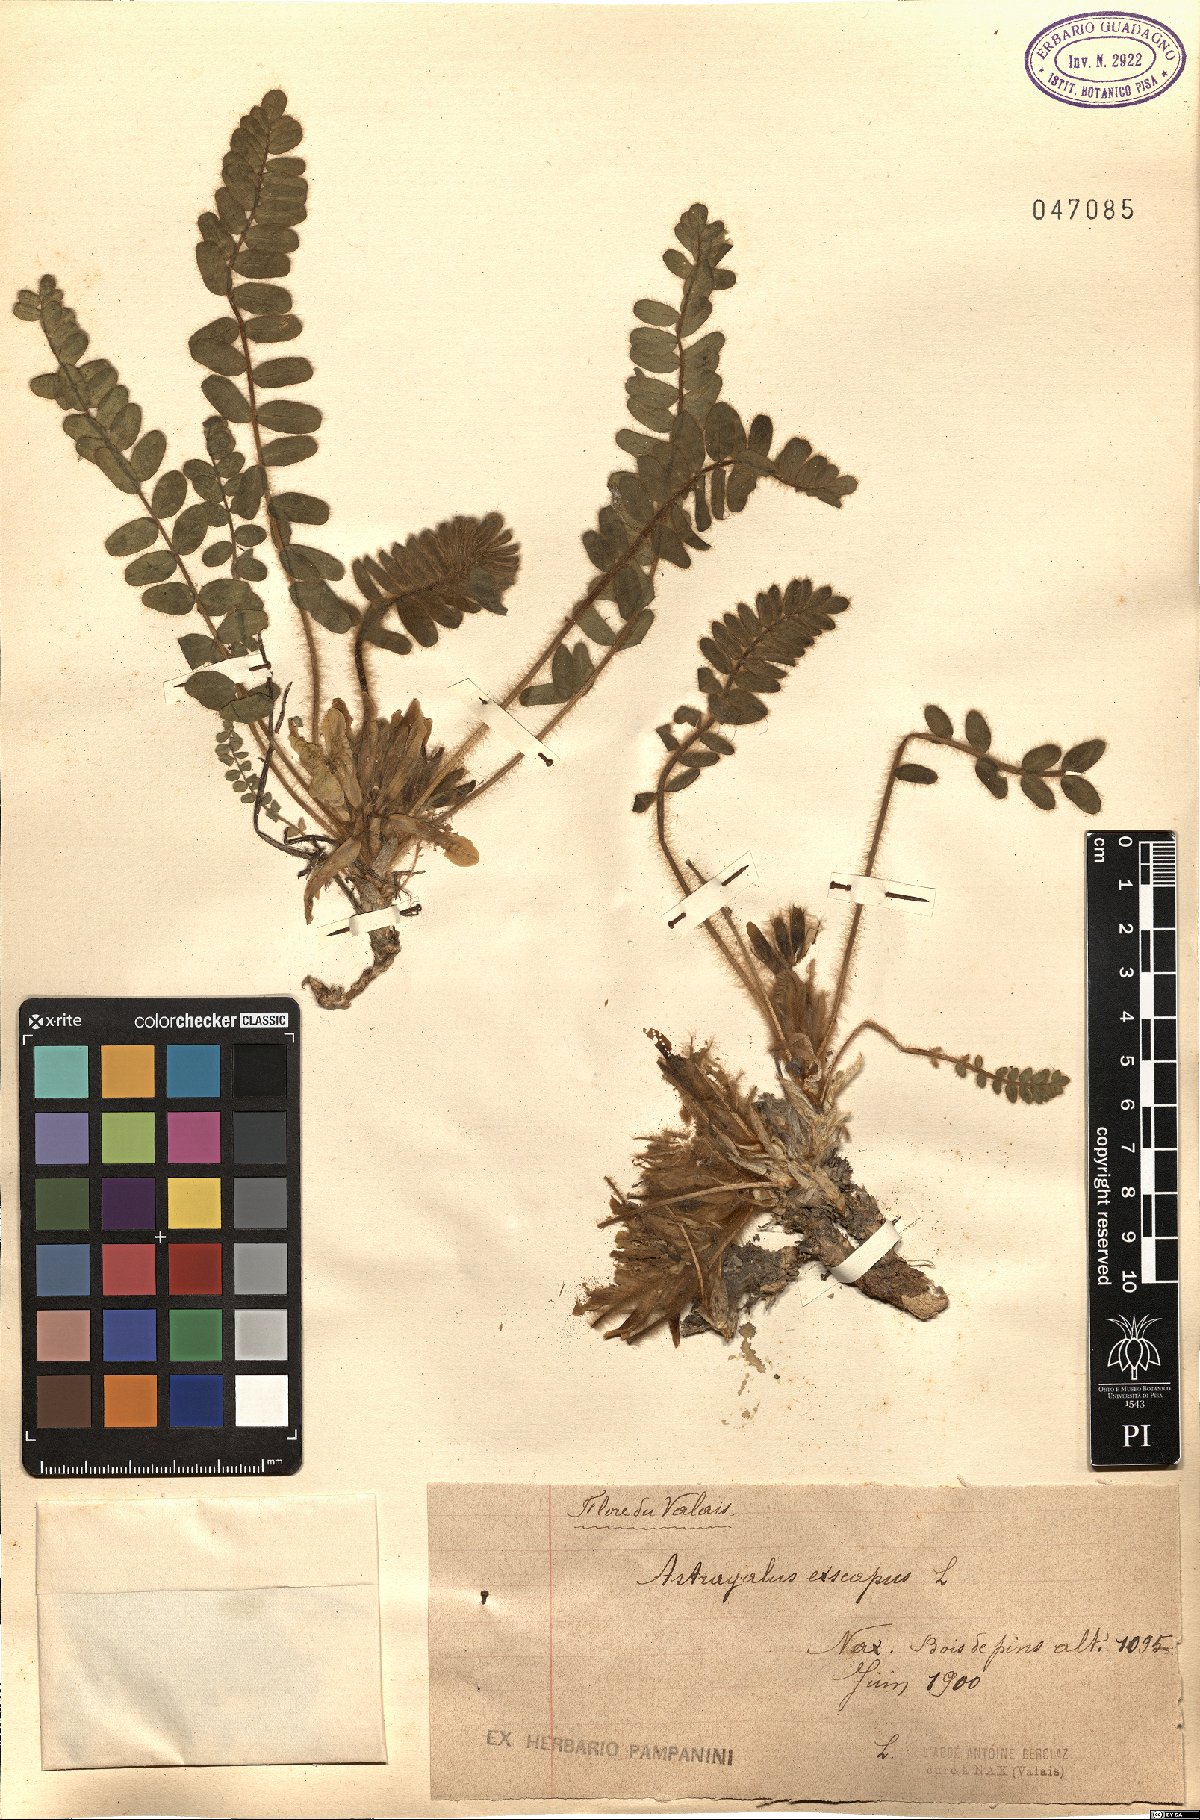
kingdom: Plantae
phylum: Tracheophyta
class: Magnoliopsida
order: Fabales
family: Fabaceae
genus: Astragalus
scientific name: Astragalus exscapus
